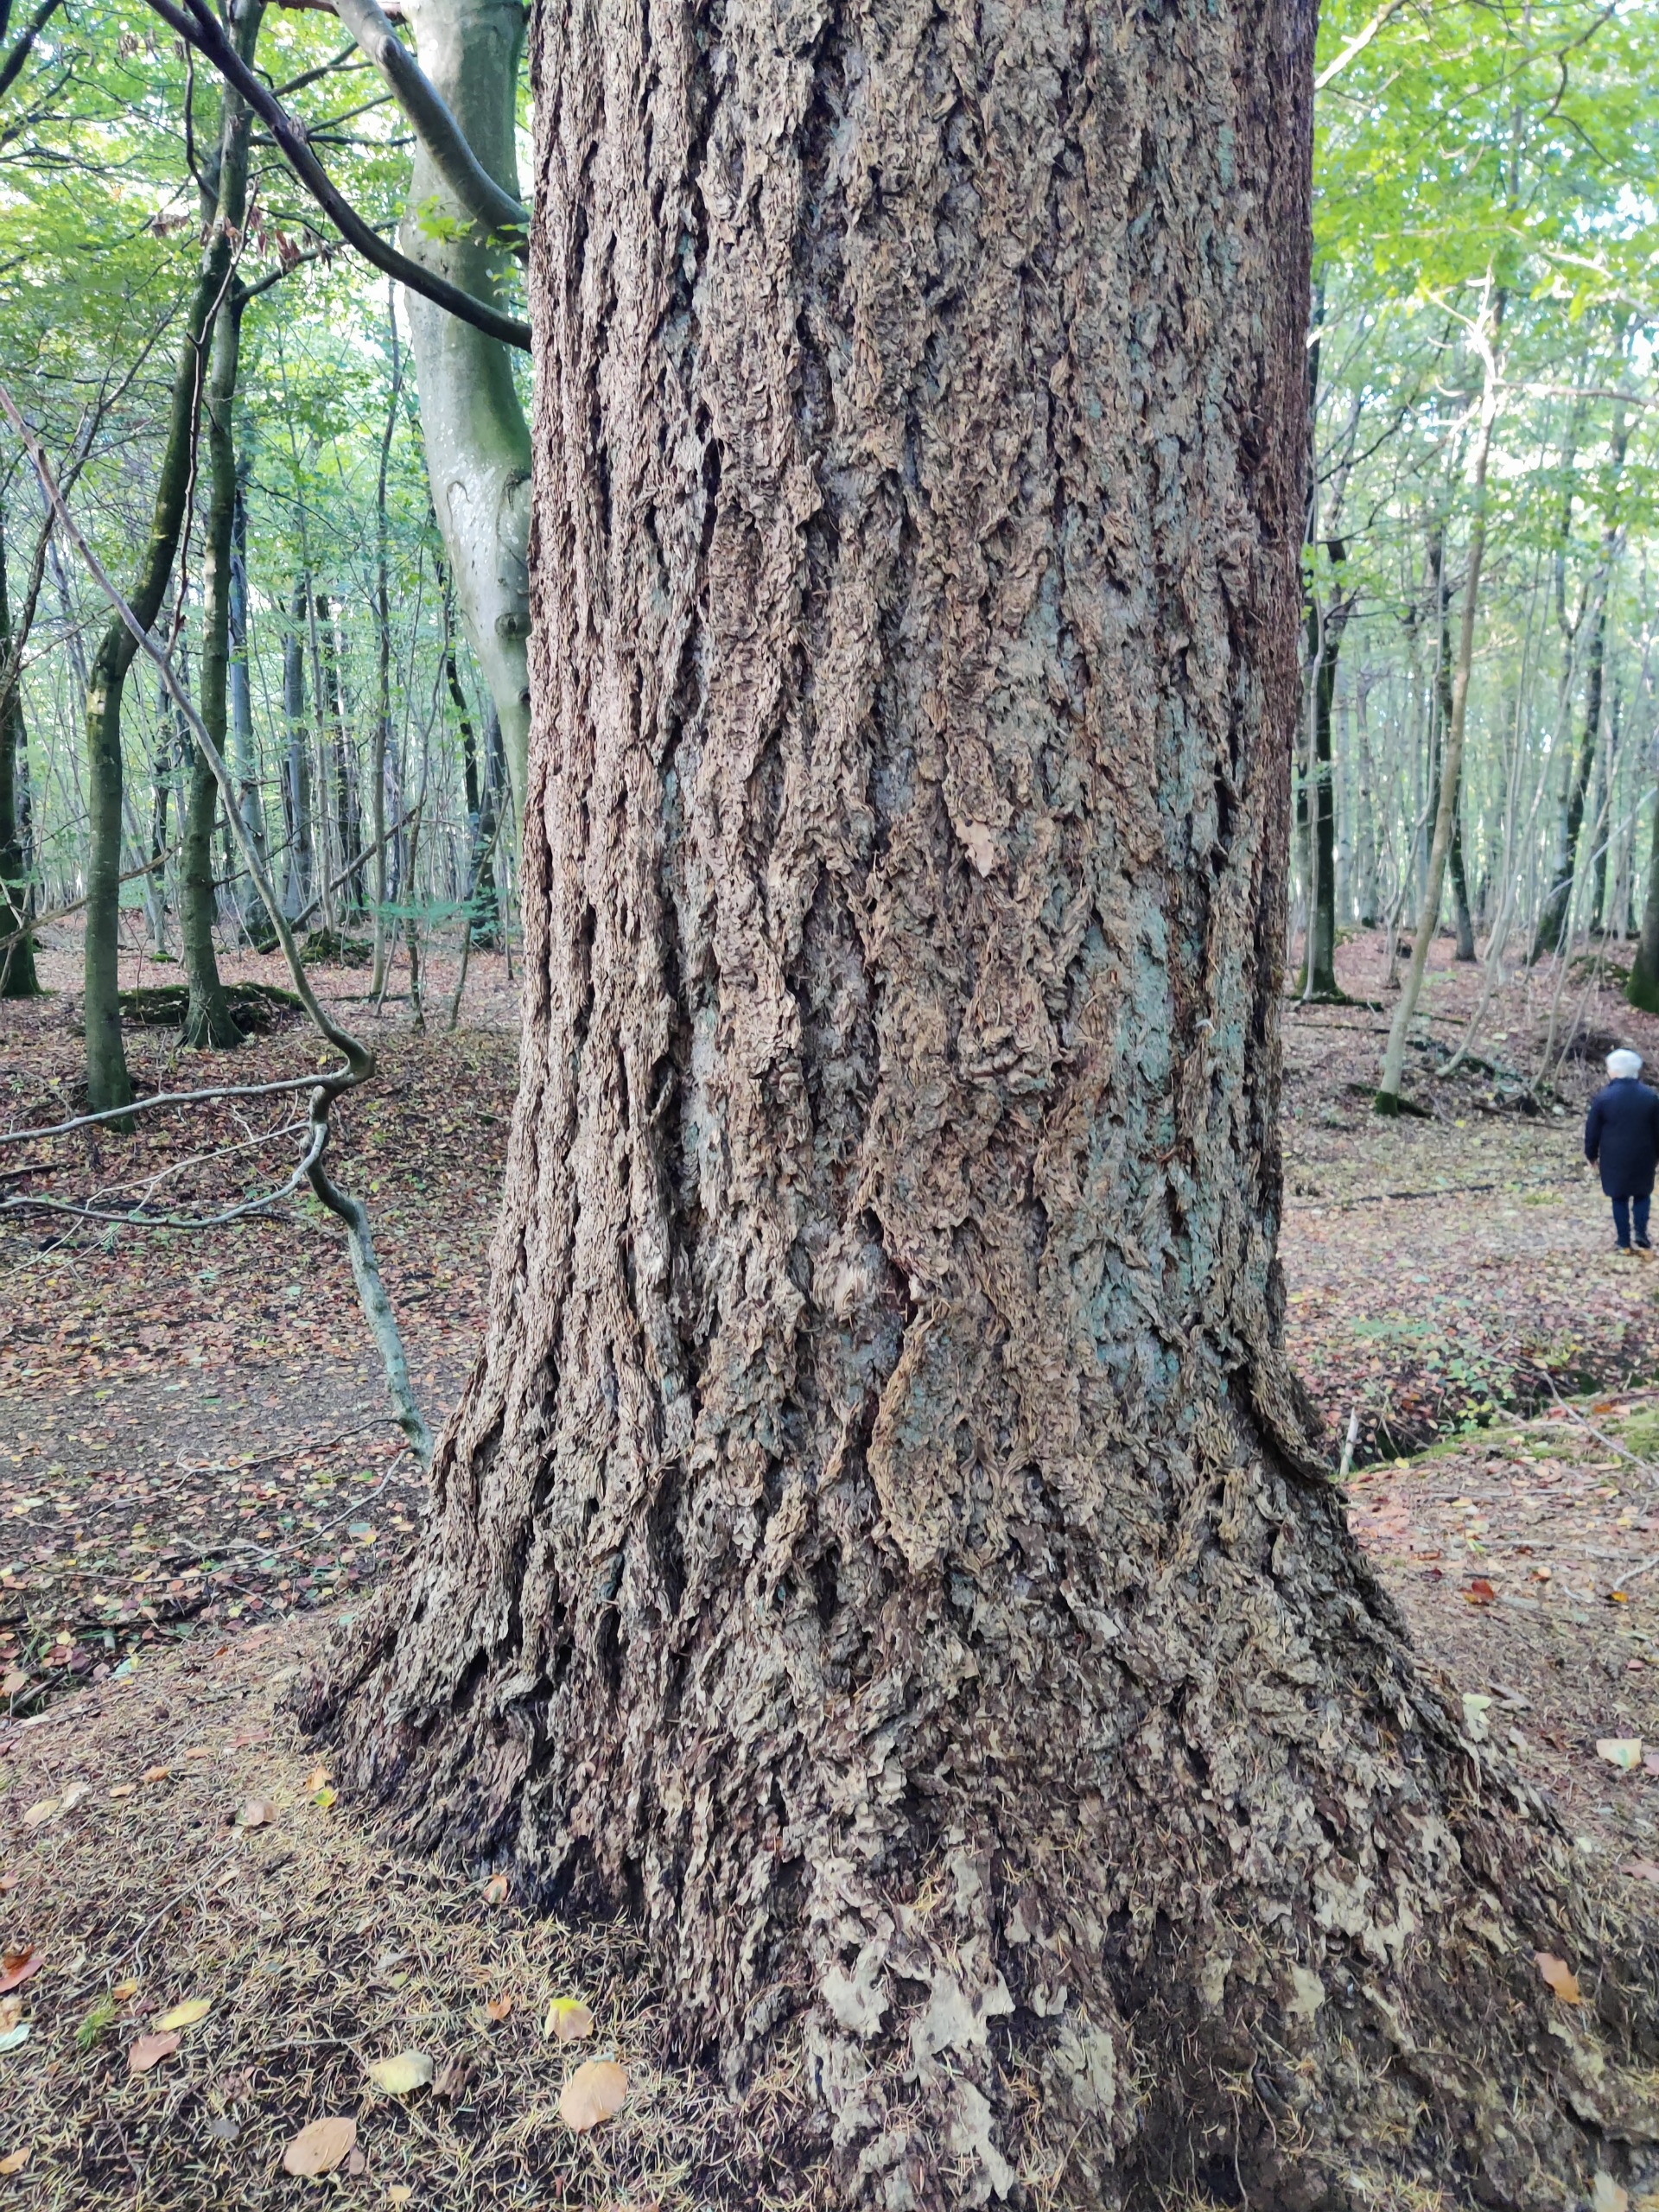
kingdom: Plantae
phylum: Tracheophyta
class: Pinopsida
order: Pinales
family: Pinaceae
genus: Pseudotsuga
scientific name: Pseudotsuga menziesii
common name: Douglasgran
